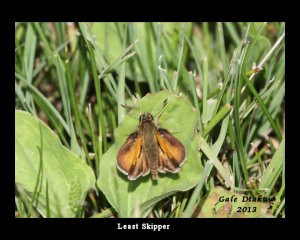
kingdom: Animalia
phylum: Arthropoda
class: Insecta
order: Lepidoptera
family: Hesperiidae
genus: Ancyloxypha
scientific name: Ancyloxypha numitor
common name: Least Skipper
